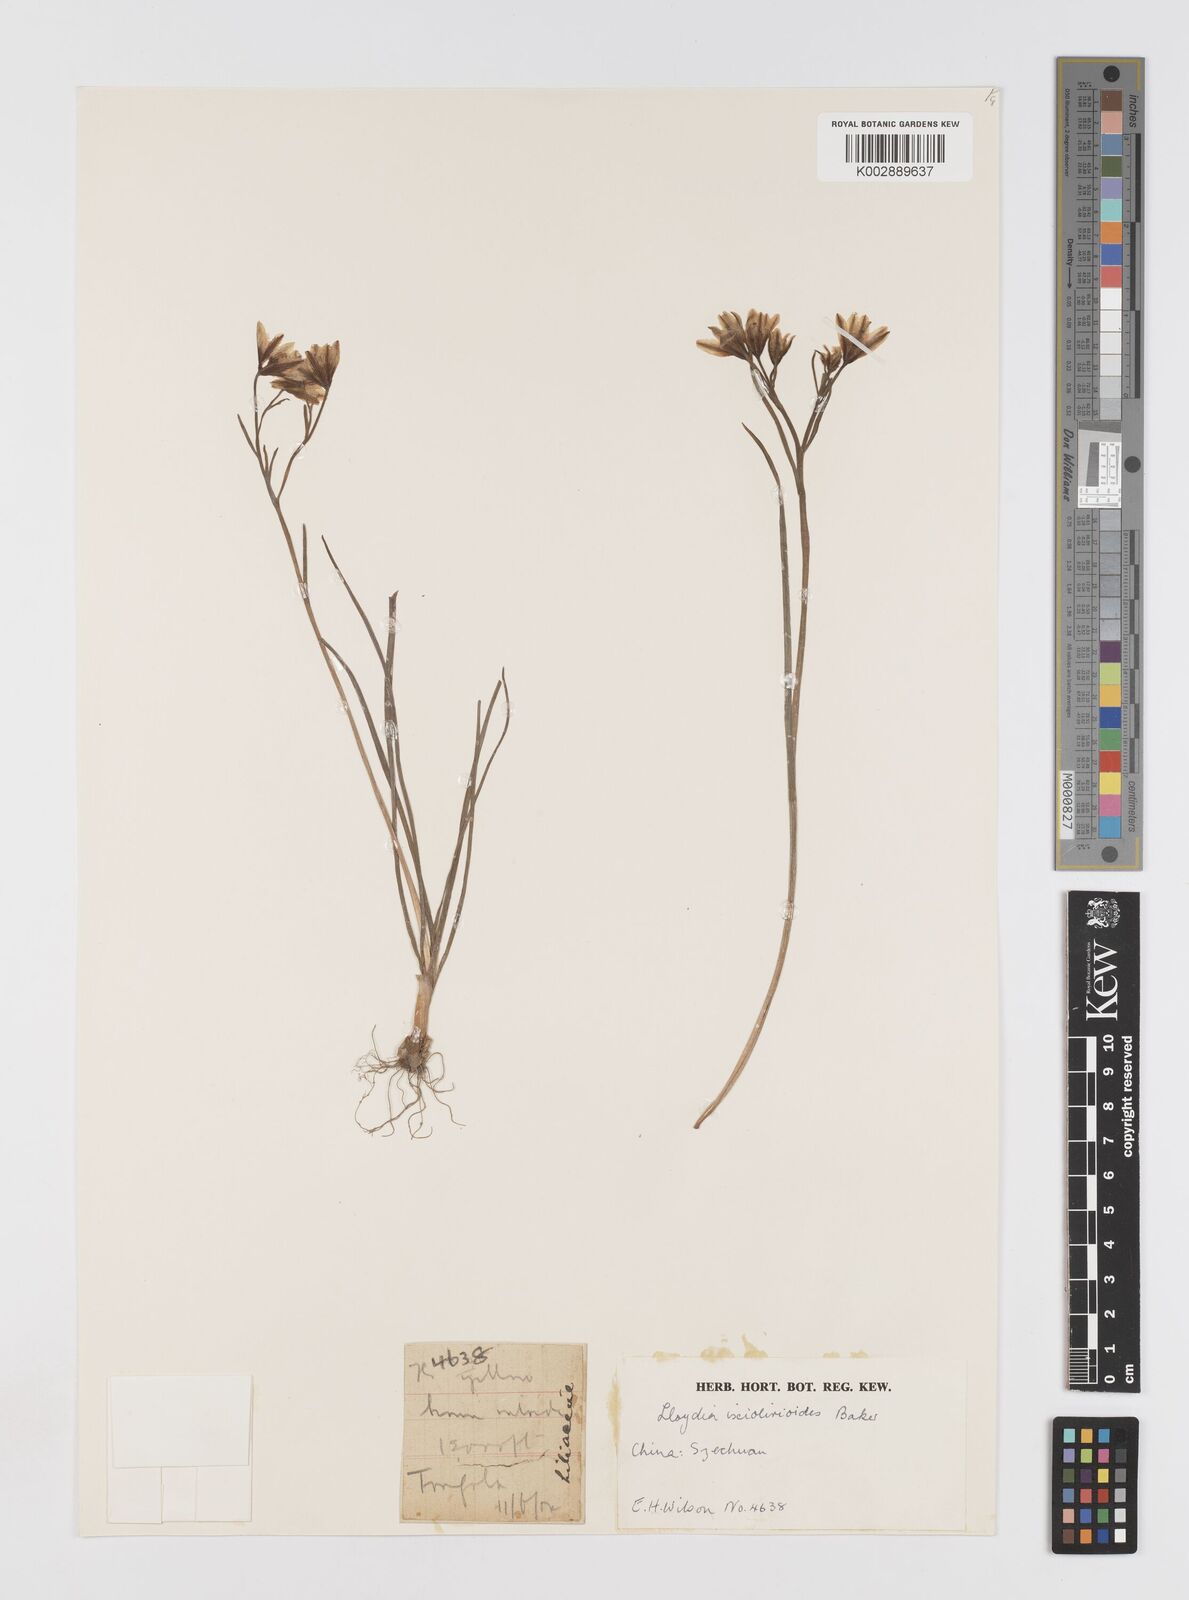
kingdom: Plantae
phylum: Tracheophyta
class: Liliopsida
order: Liliales
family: Liliaceae
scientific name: Liliaceae
